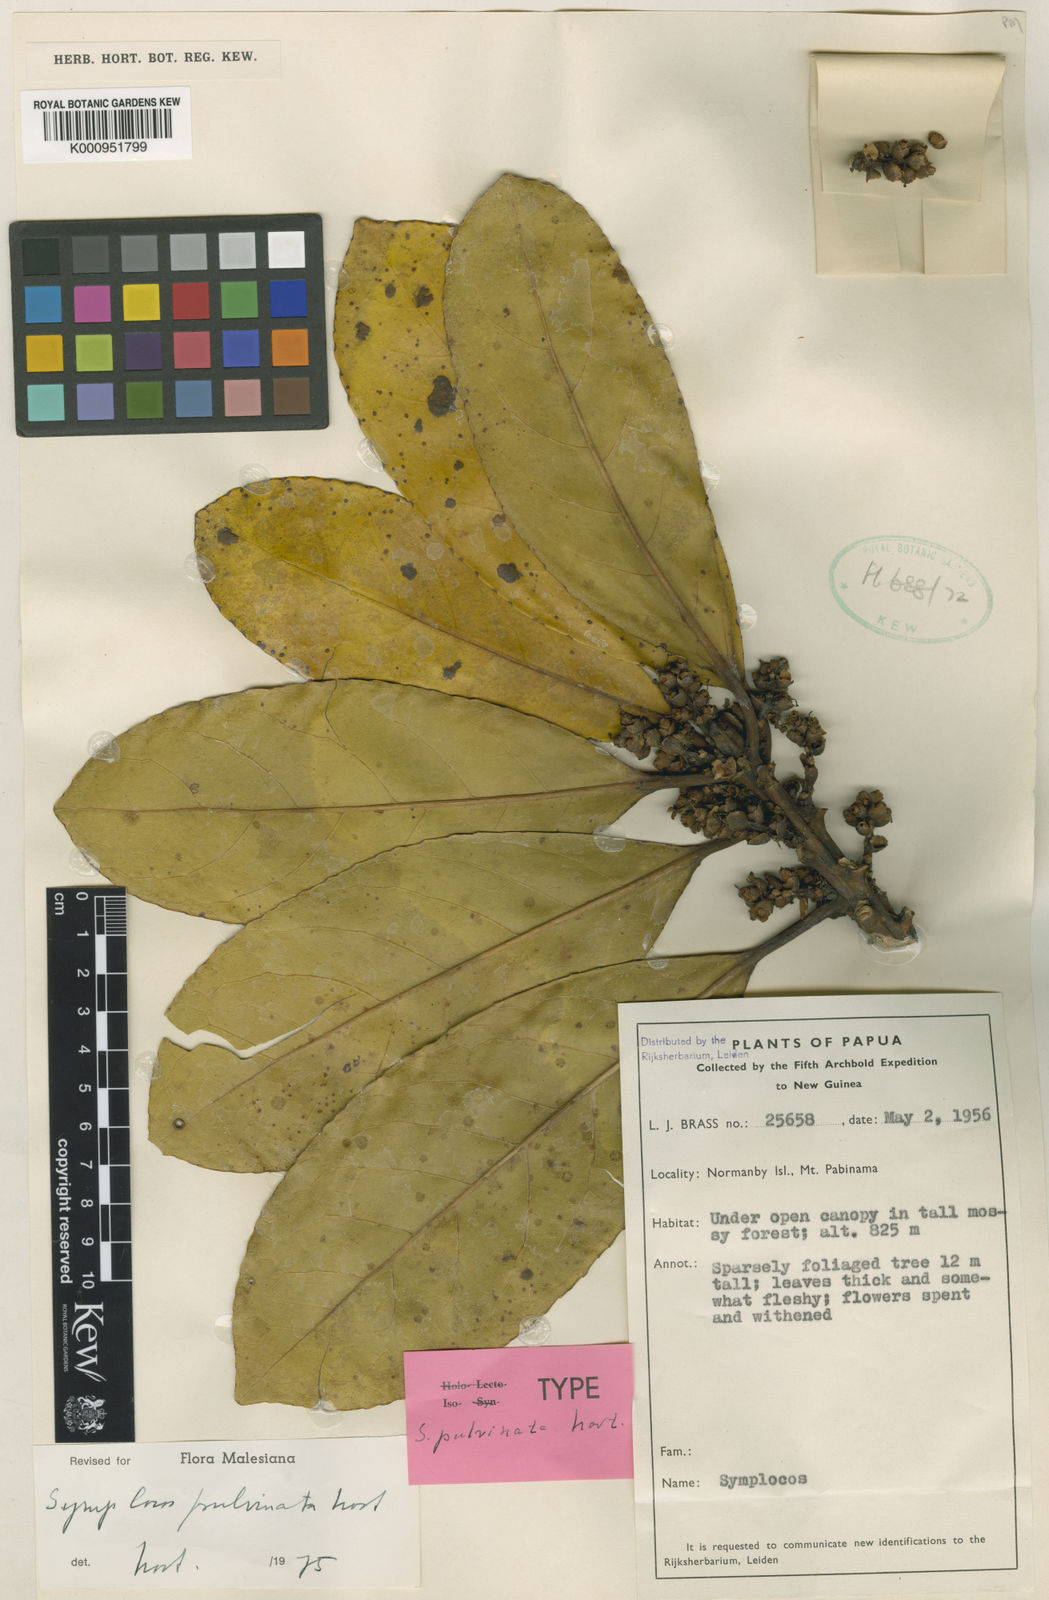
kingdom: Plantae
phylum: Tracheophyta
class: Magnoliopsida
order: Ericales
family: Symplocaceae
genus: Symplocos
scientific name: Symplocos pulvinata
